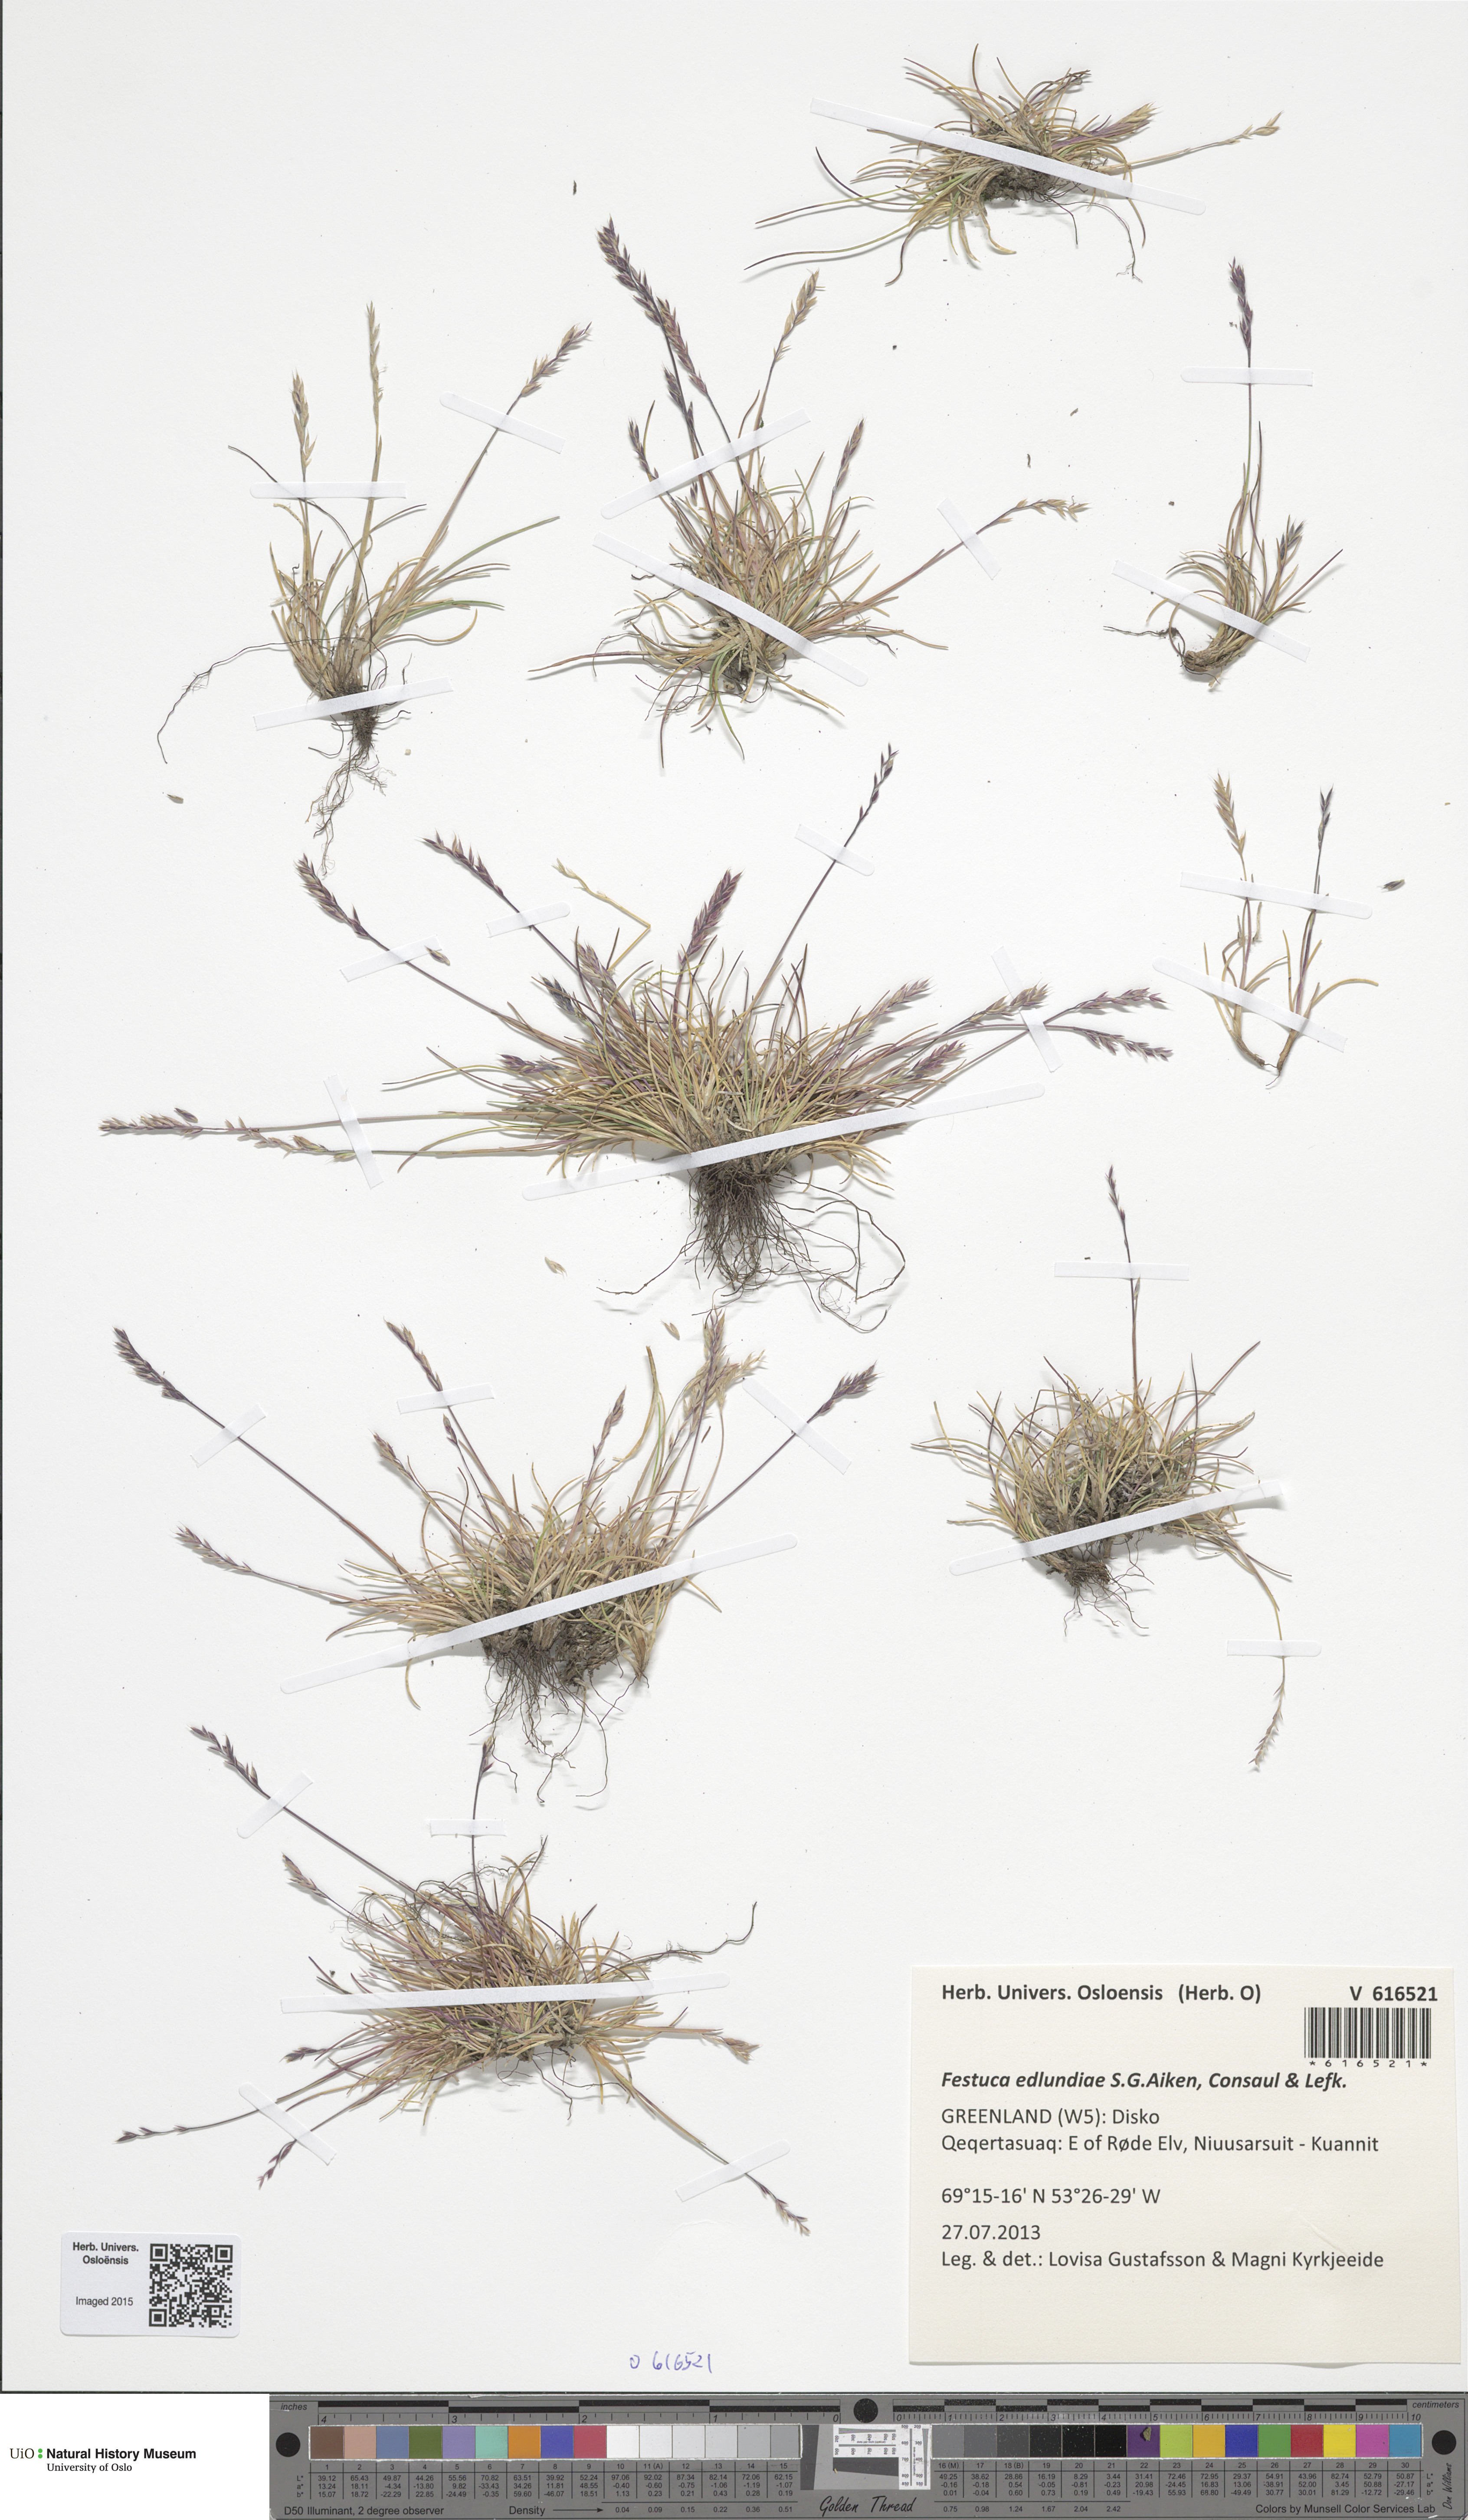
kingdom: Plantae
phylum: Tracheophyta
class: Liliopsida
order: Poales
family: Poaceae
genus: Festuca
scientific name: Festuca edlundiae
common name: Edlund's fescue
